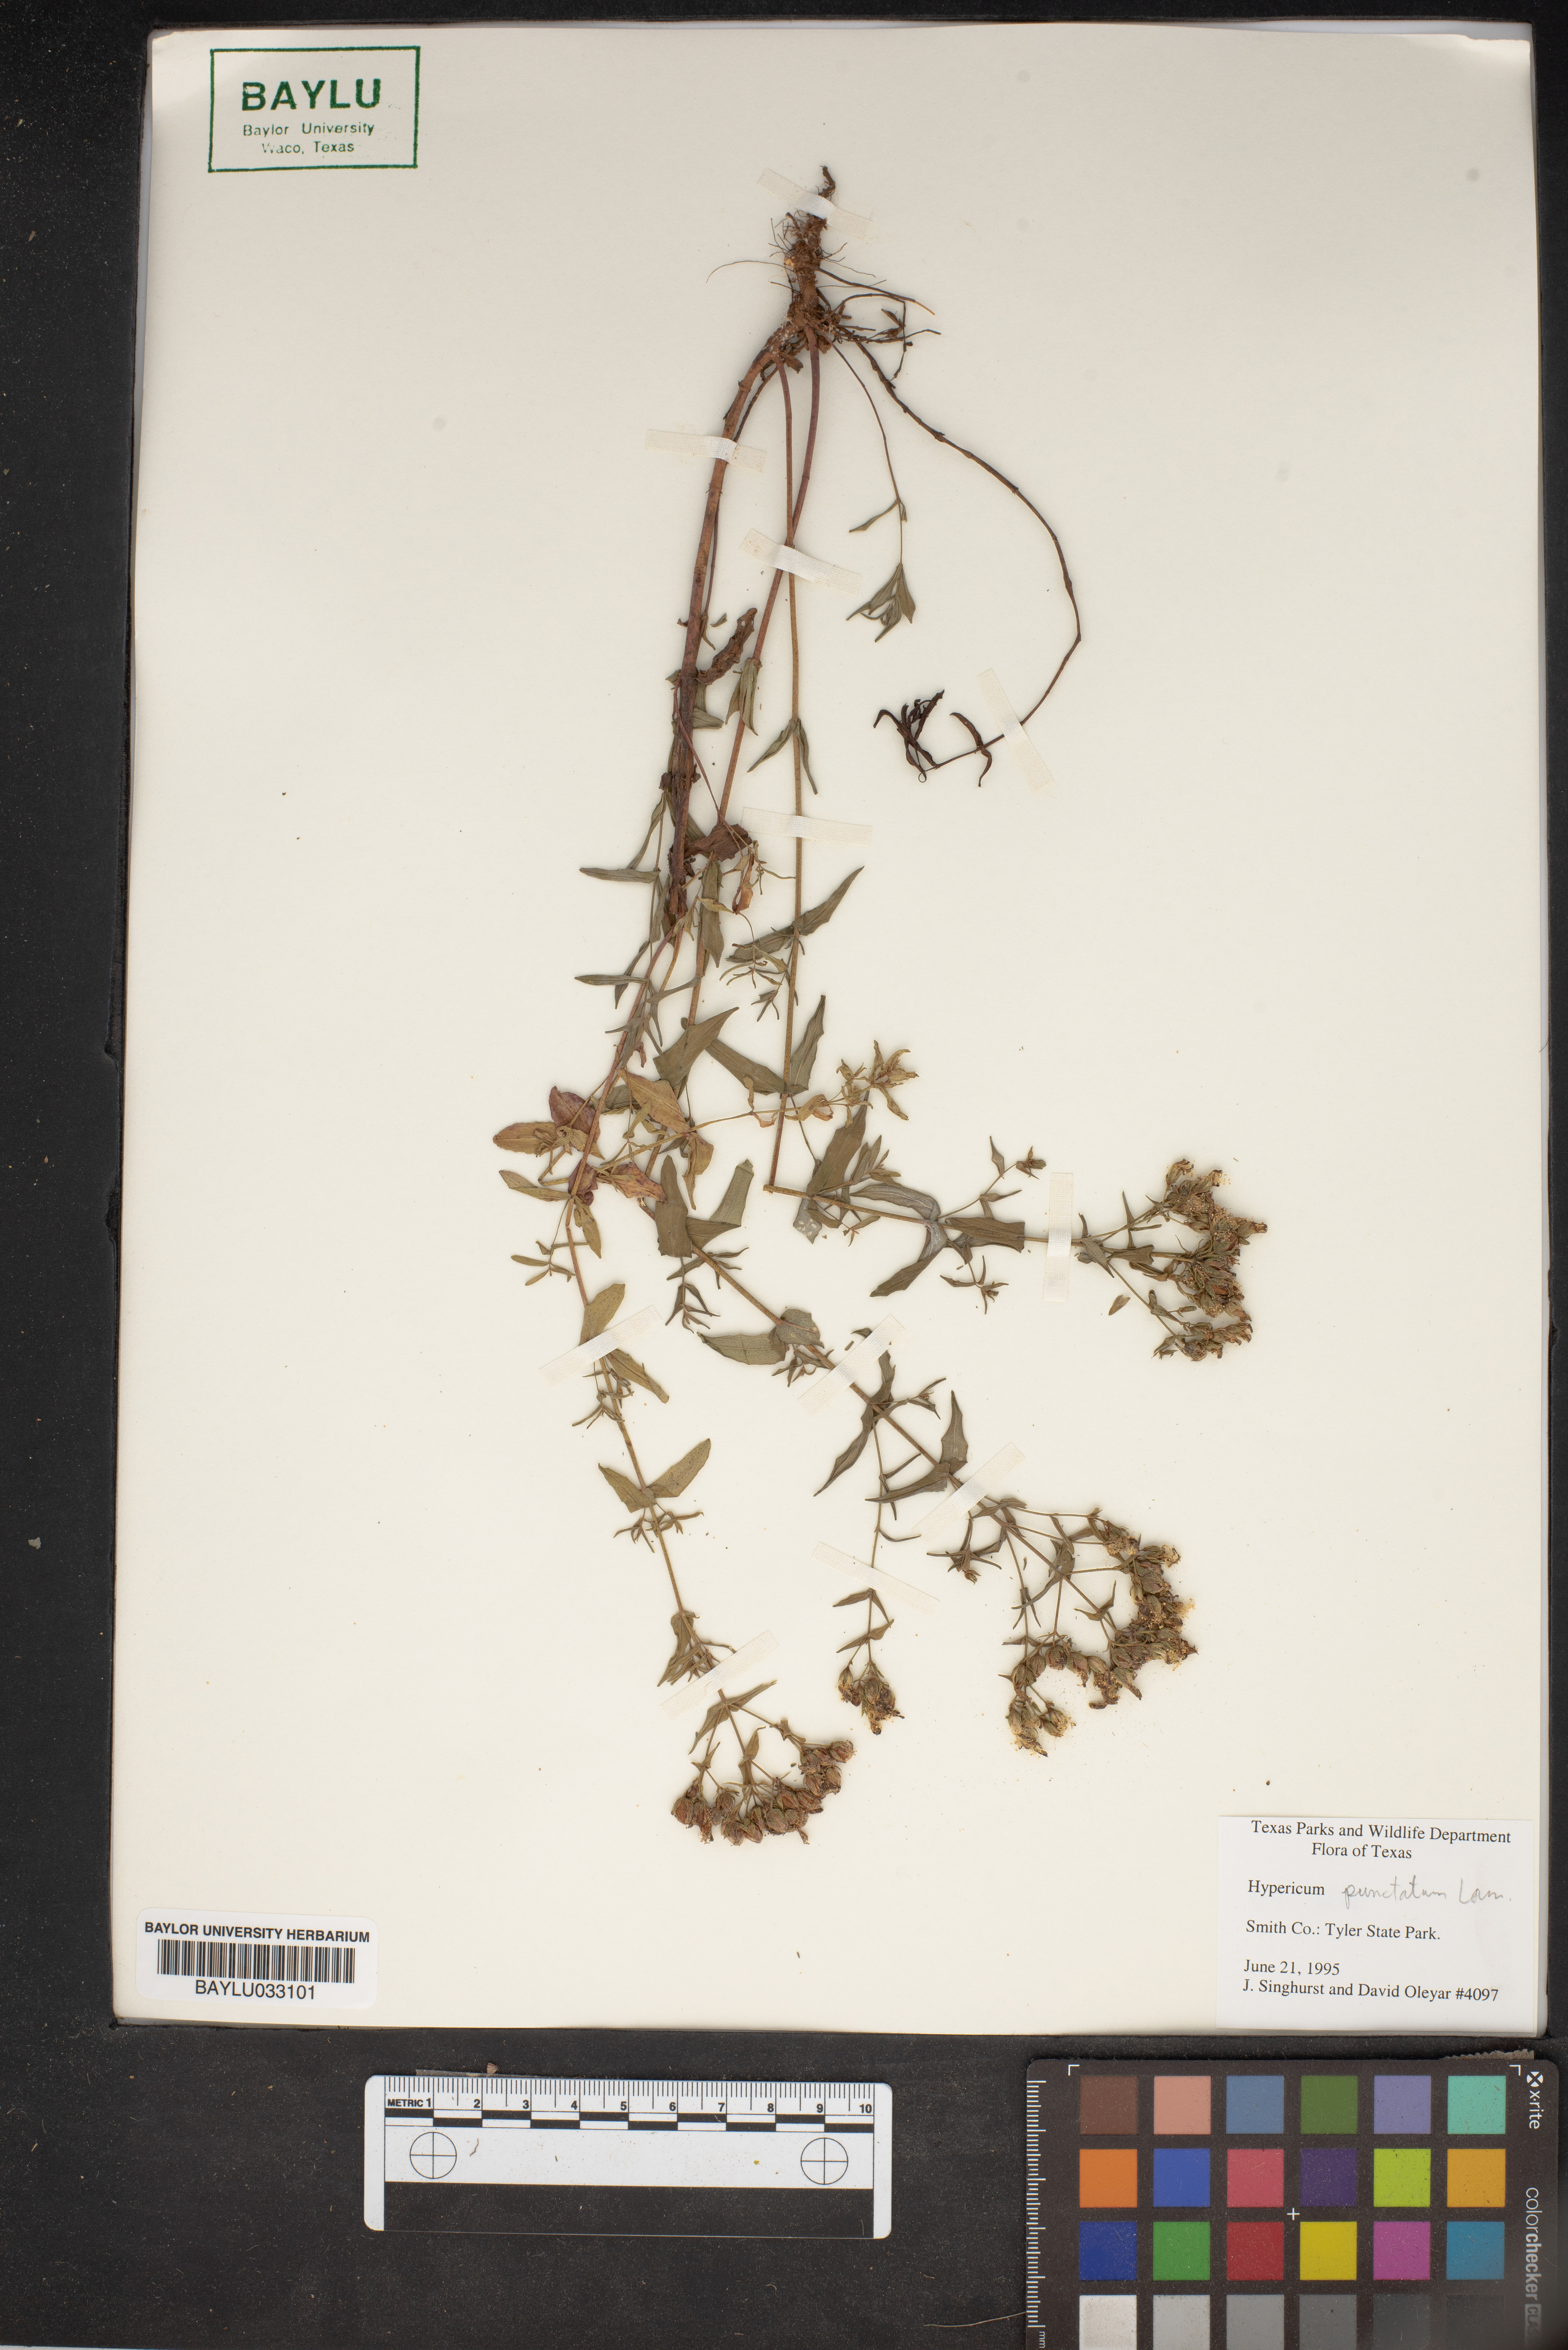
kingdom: Plantae
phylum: Tracheophyta
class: Magnoliopsida
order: Malpighiales
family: Hypericaceae
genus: Hypericum
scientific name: Hypericum punctatum
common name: Spotted st. john's-wort
